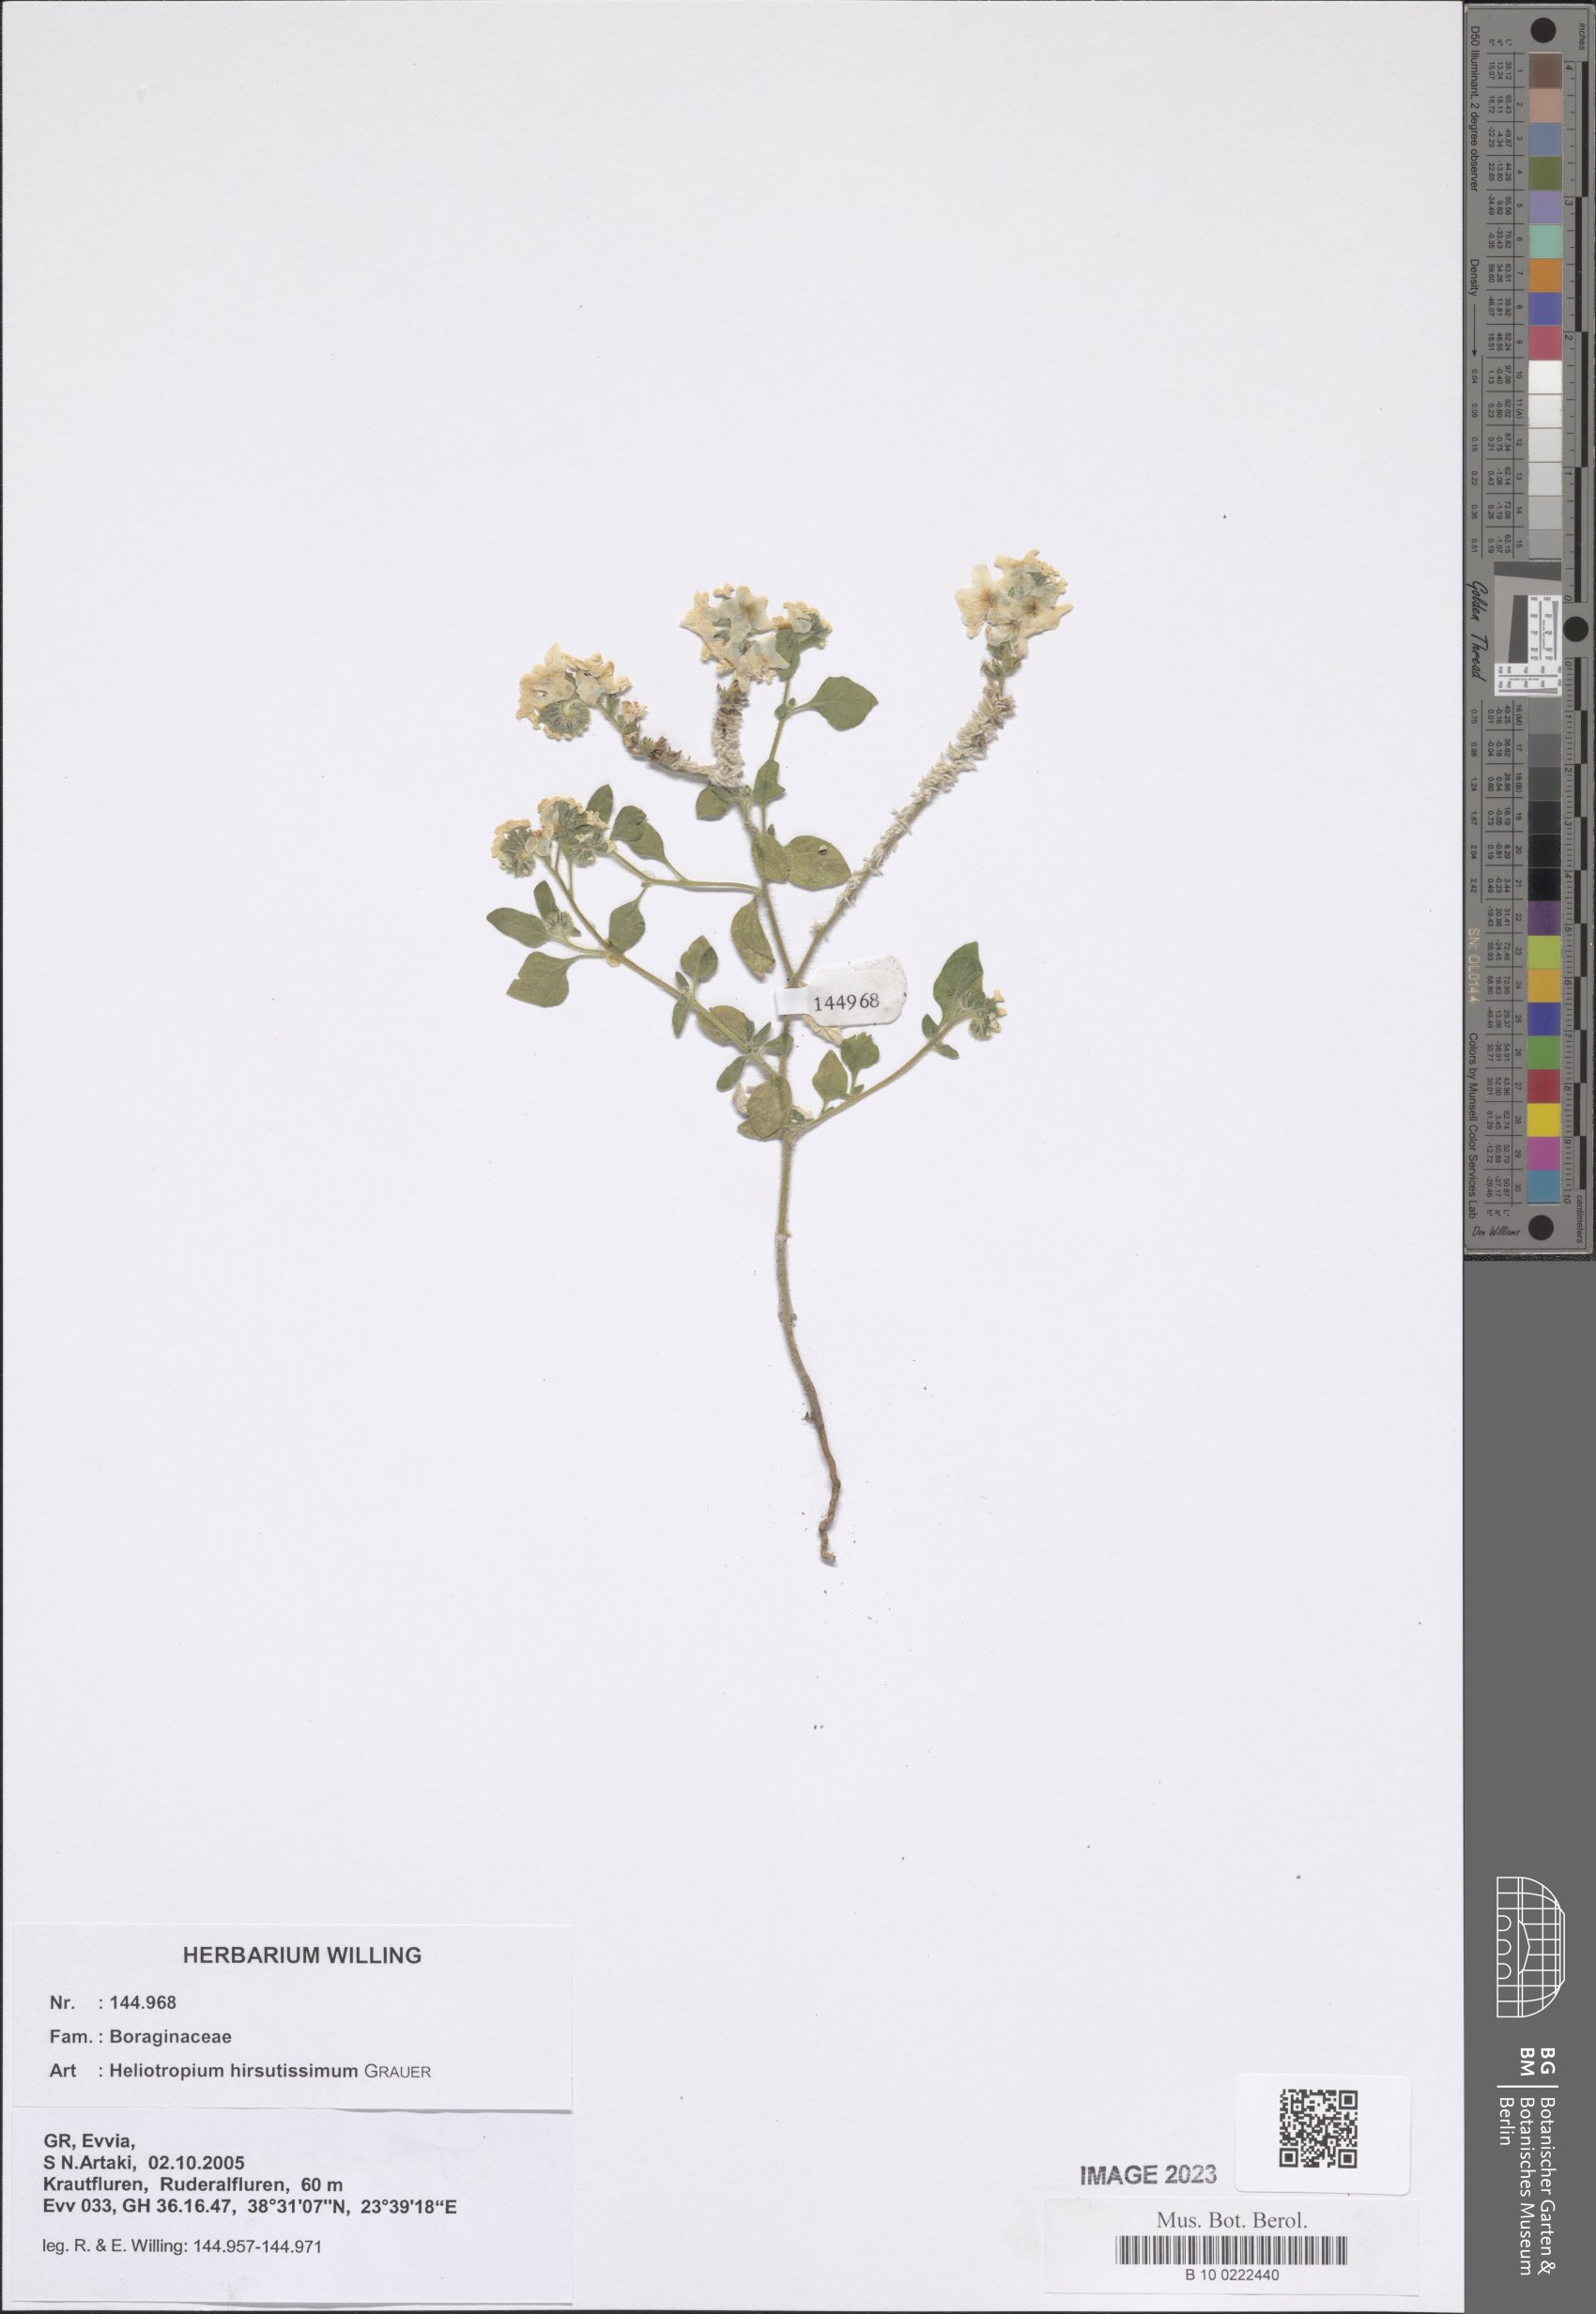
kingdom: Plantae
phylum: Tracheophyta
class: Magnoliopsida
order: Boraginales
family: Heliotropiaceae
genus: Heliotropium
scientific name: Heliotropium hirsutissimum
